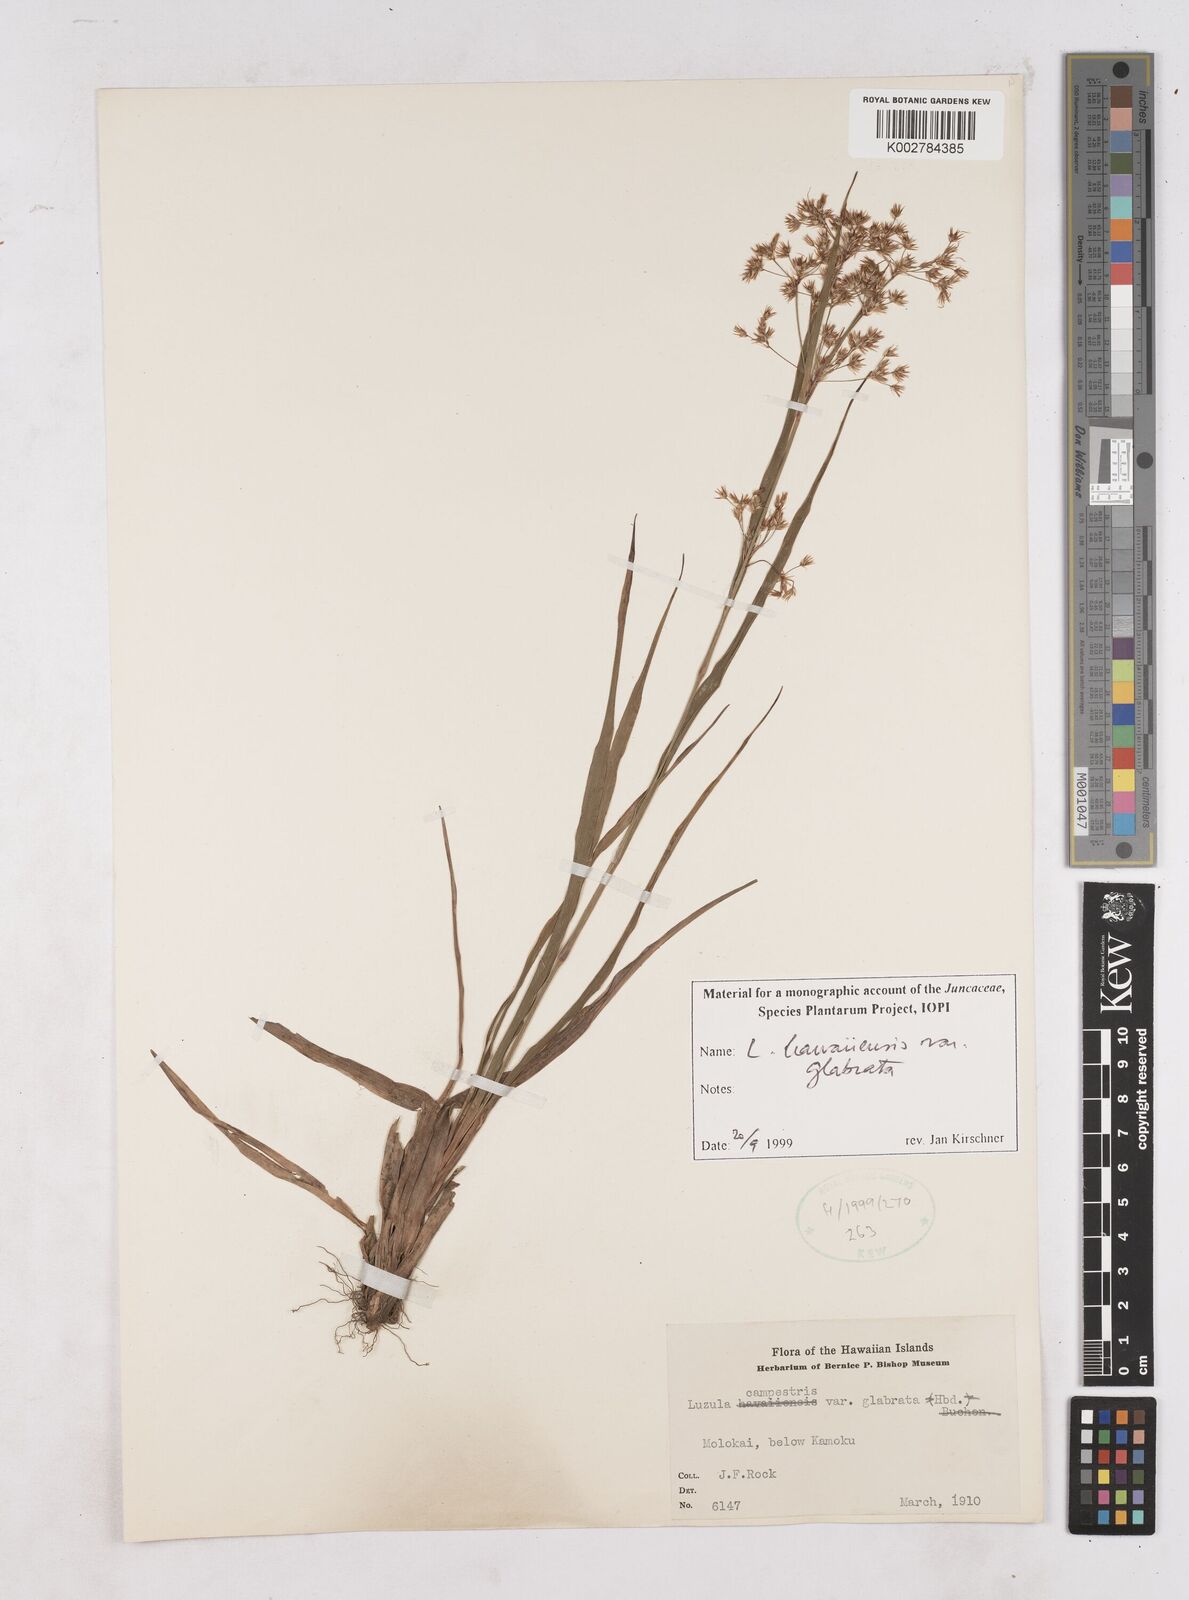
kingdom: Plantae
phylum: Tracheophyta
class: Liliopsida
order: Poales
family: Juncaceae
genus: Luzula
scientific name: Luzula hawaiiensis
